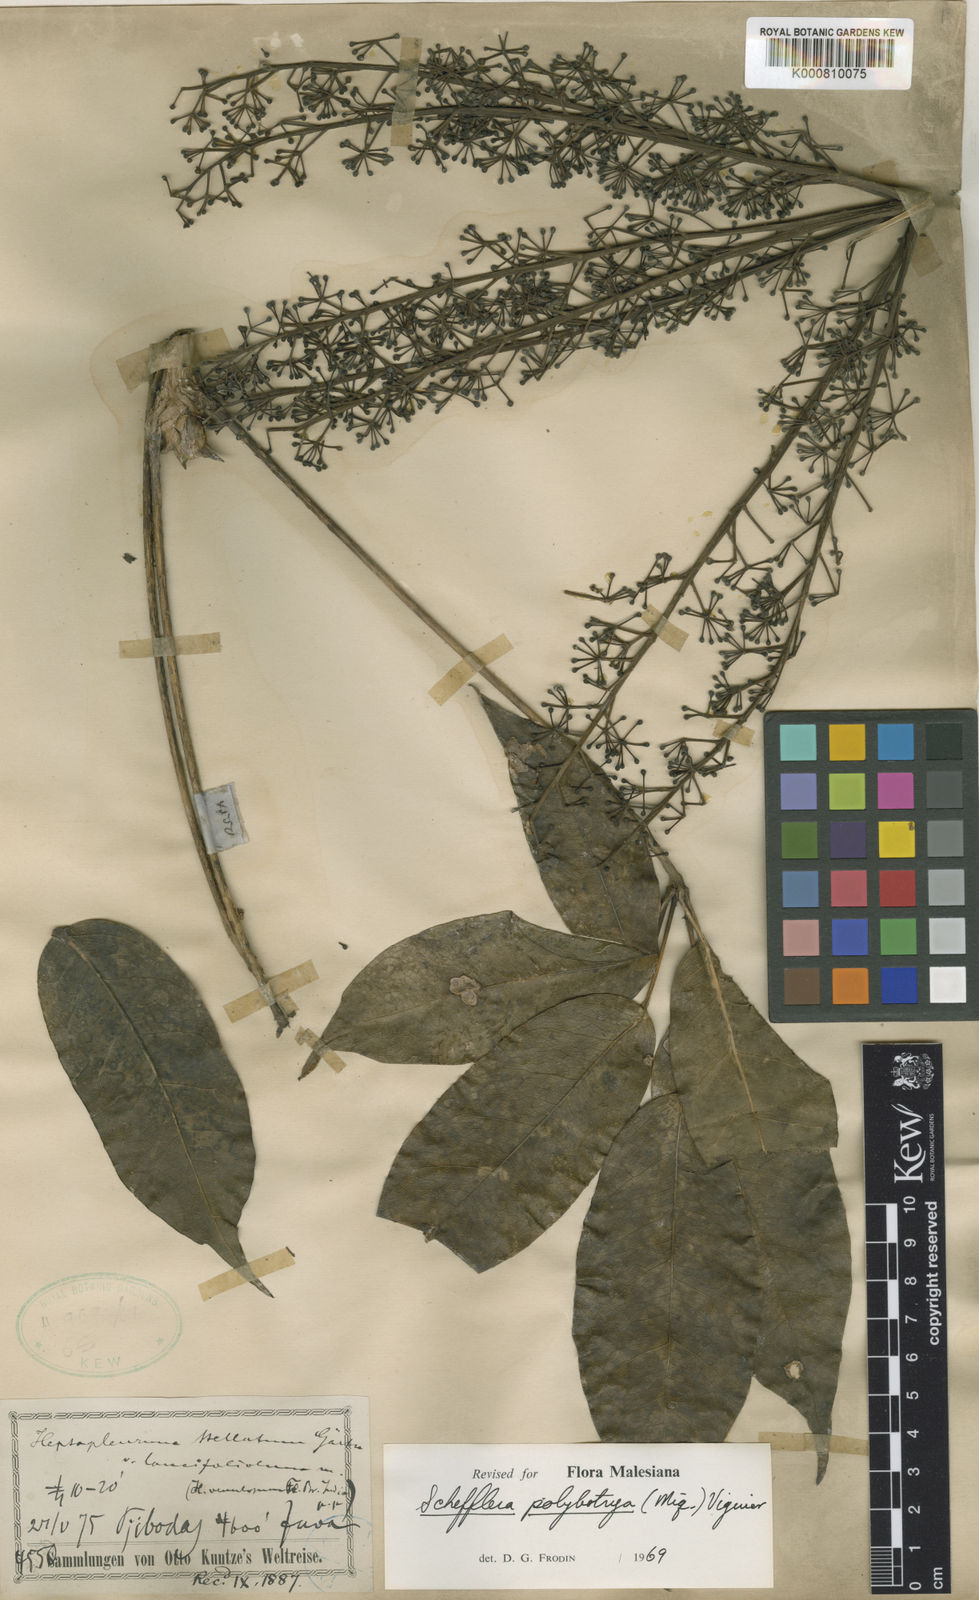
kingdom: Plantae
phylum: Tracheophyta
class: Magnoliopsida
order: Apiales
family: Araliaceae
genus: Heptapleurum
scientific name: Heptapleurum polybotryum
